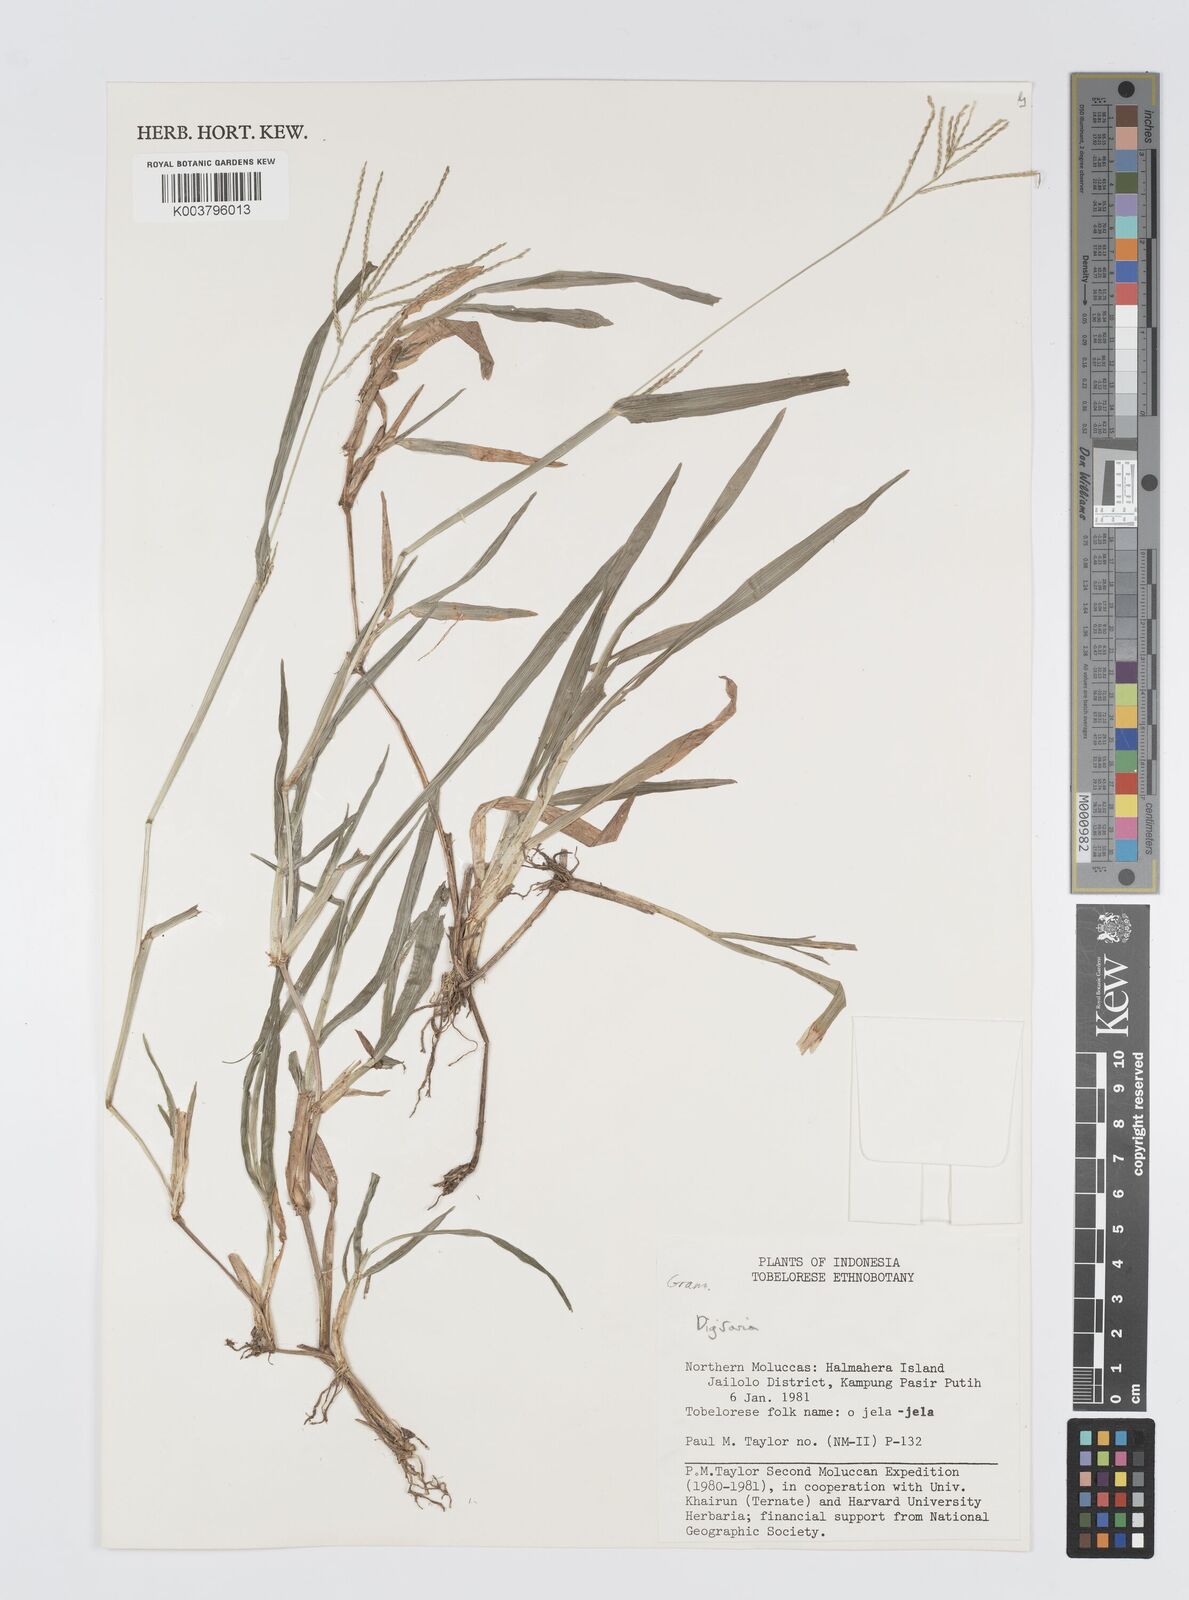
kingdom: Plantae
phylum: Tracheophyta
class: Liliopsida
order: Poales
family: Poaceae
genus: Digitaria
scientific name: Digitaria spec
